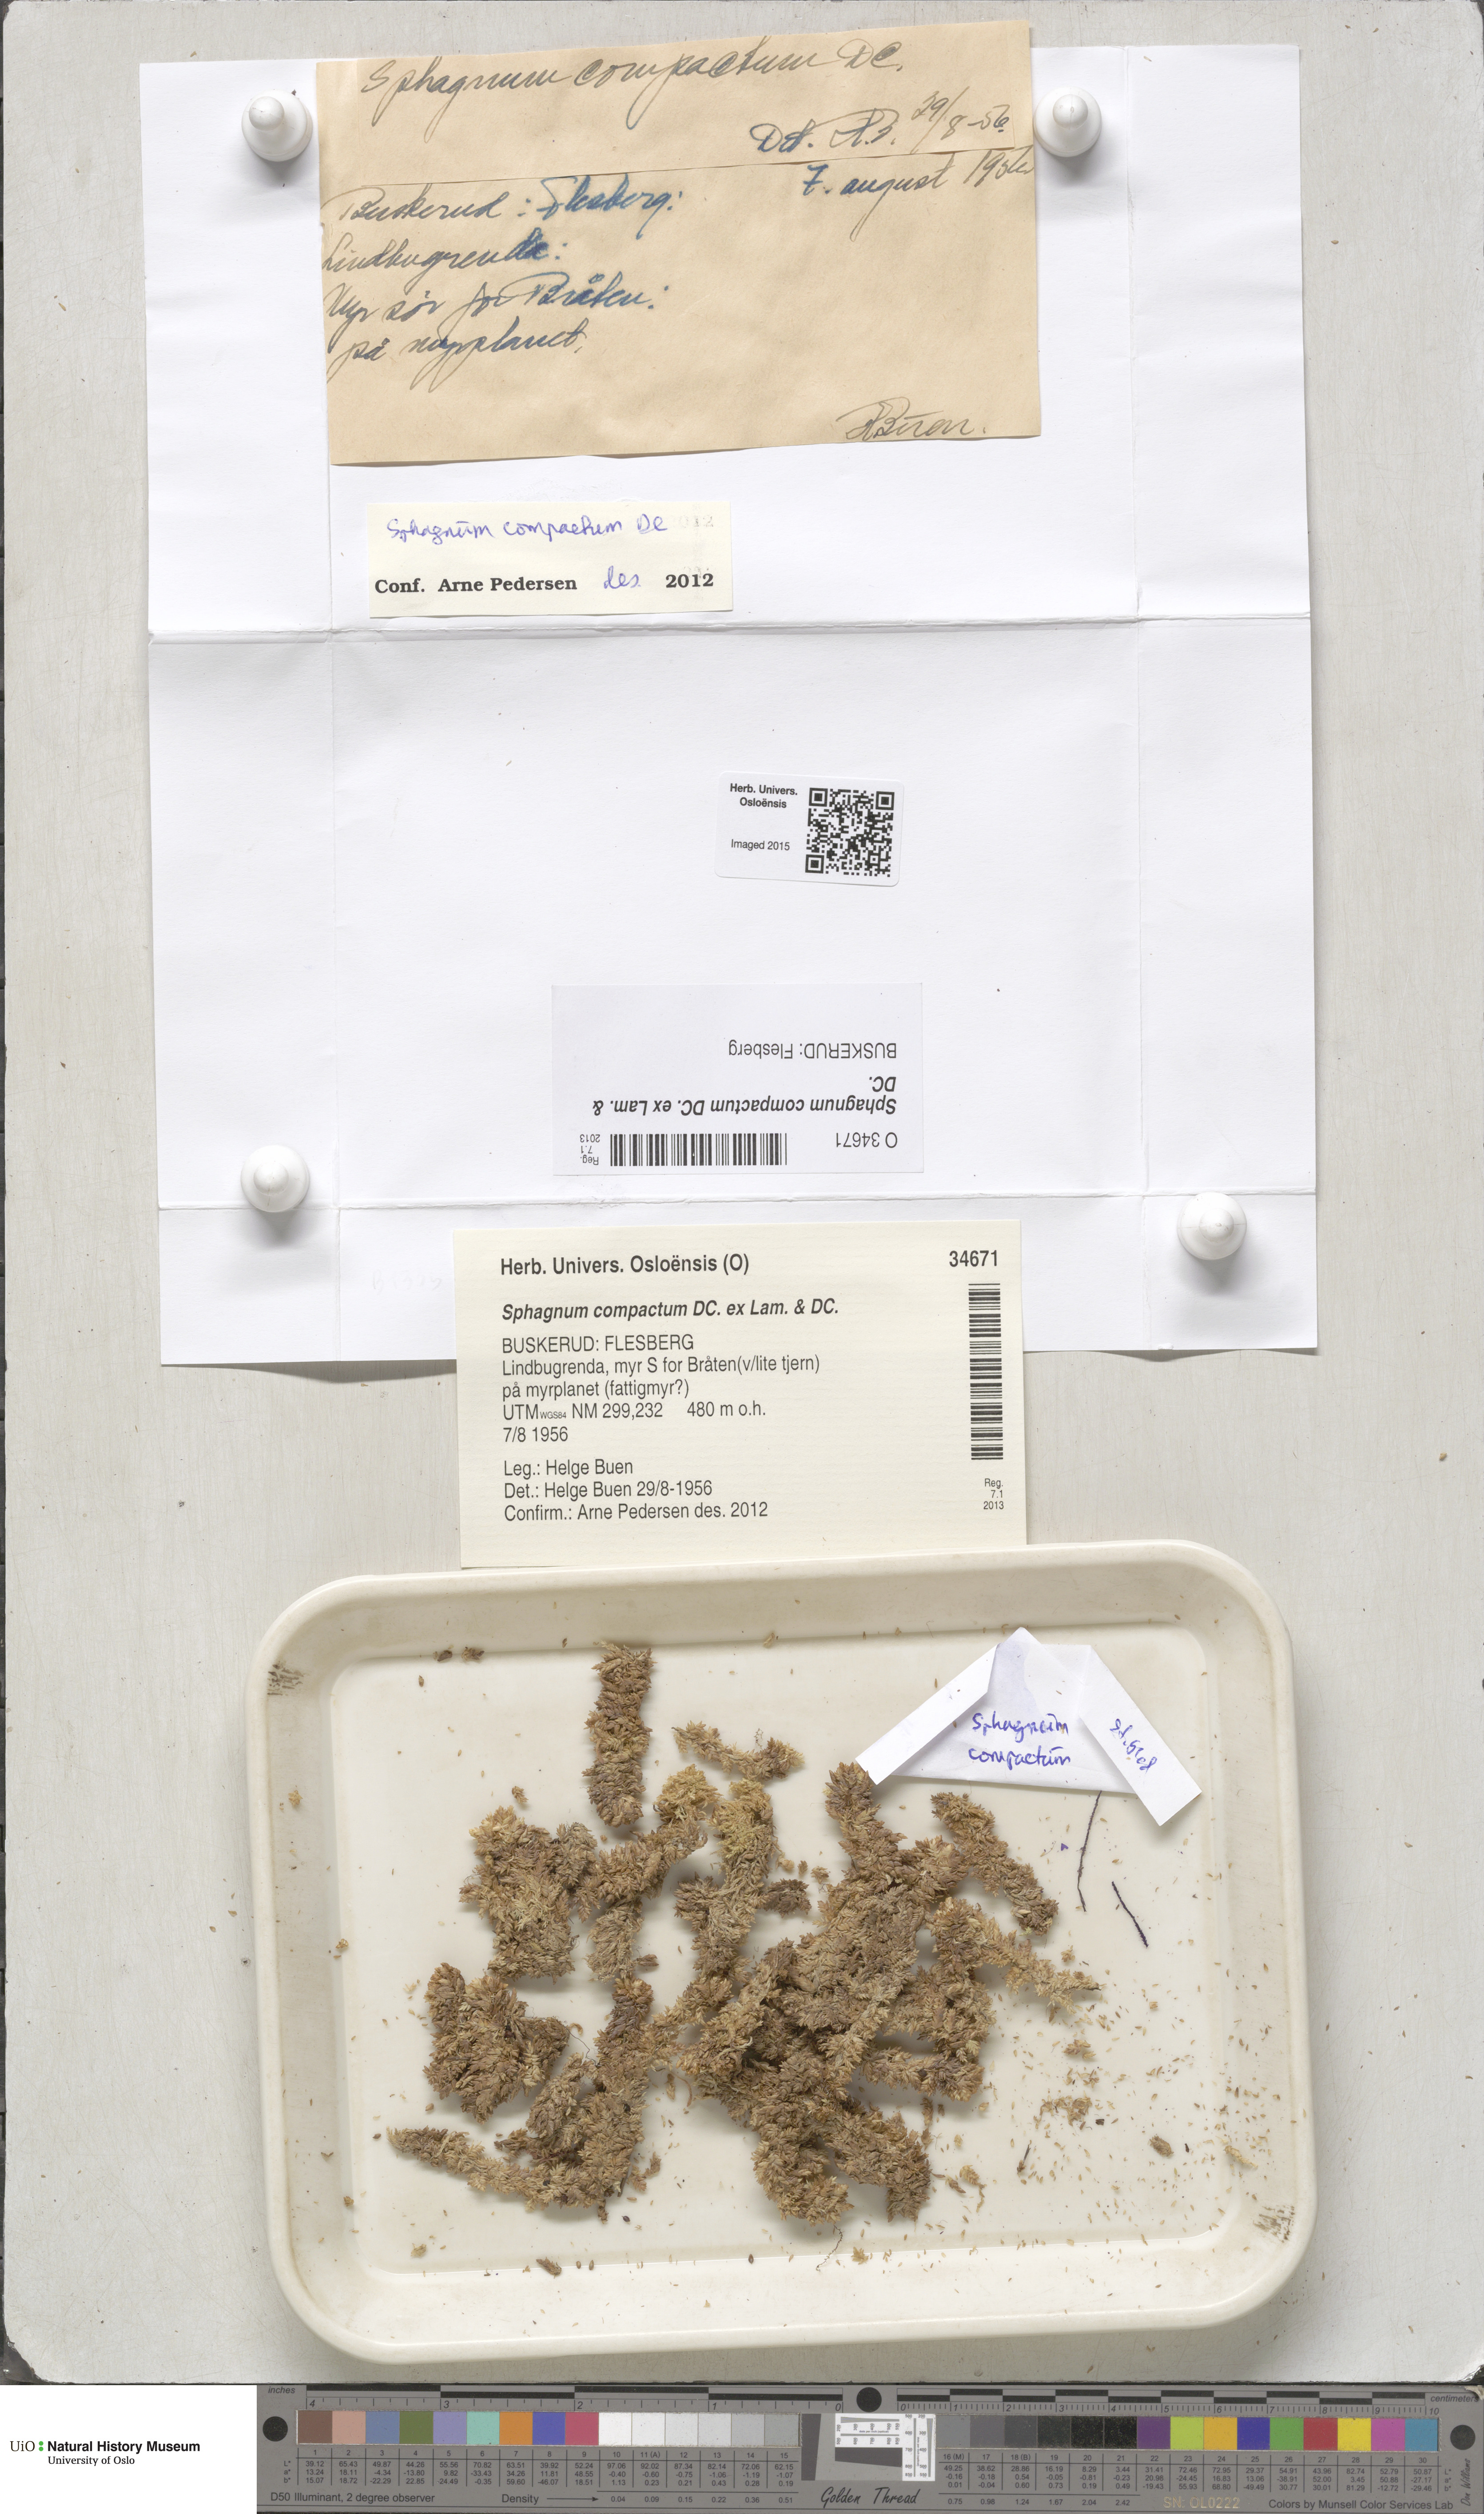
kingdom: Plantae
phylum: Bryophyta
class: Sphagnopsida
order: Sphagnales
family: Sphagnaceae
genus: Sphagnum
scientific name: Sphagnum compactum
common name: Compact peat moss
